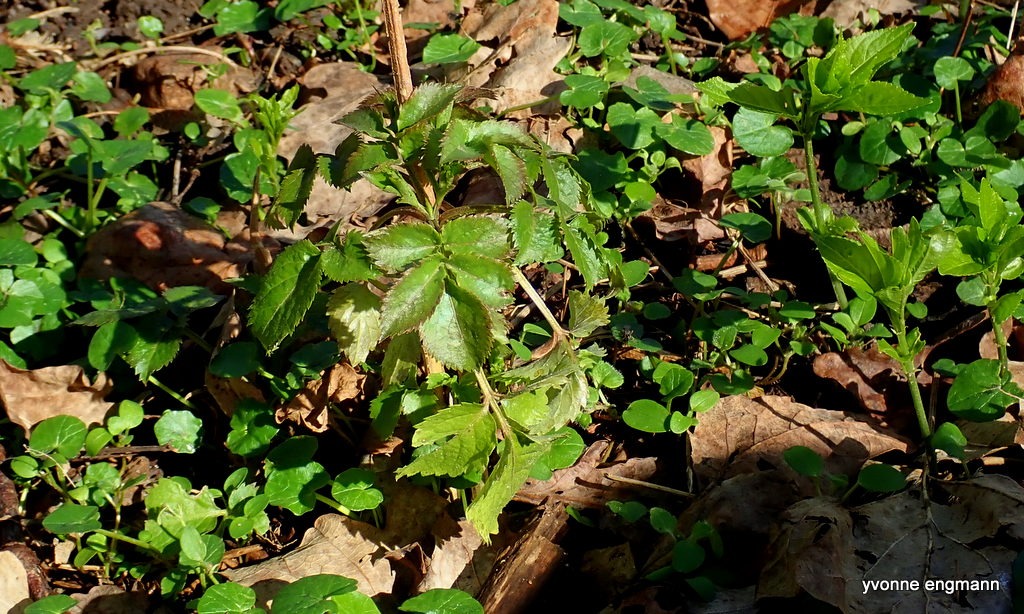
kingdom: Plantae
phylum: Tracheophyta
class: Magnoliopsida
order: Dipsacales
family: Viburnaceae
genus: Sambucus
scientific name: Sambucus nigra
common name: Almindelig hyld
